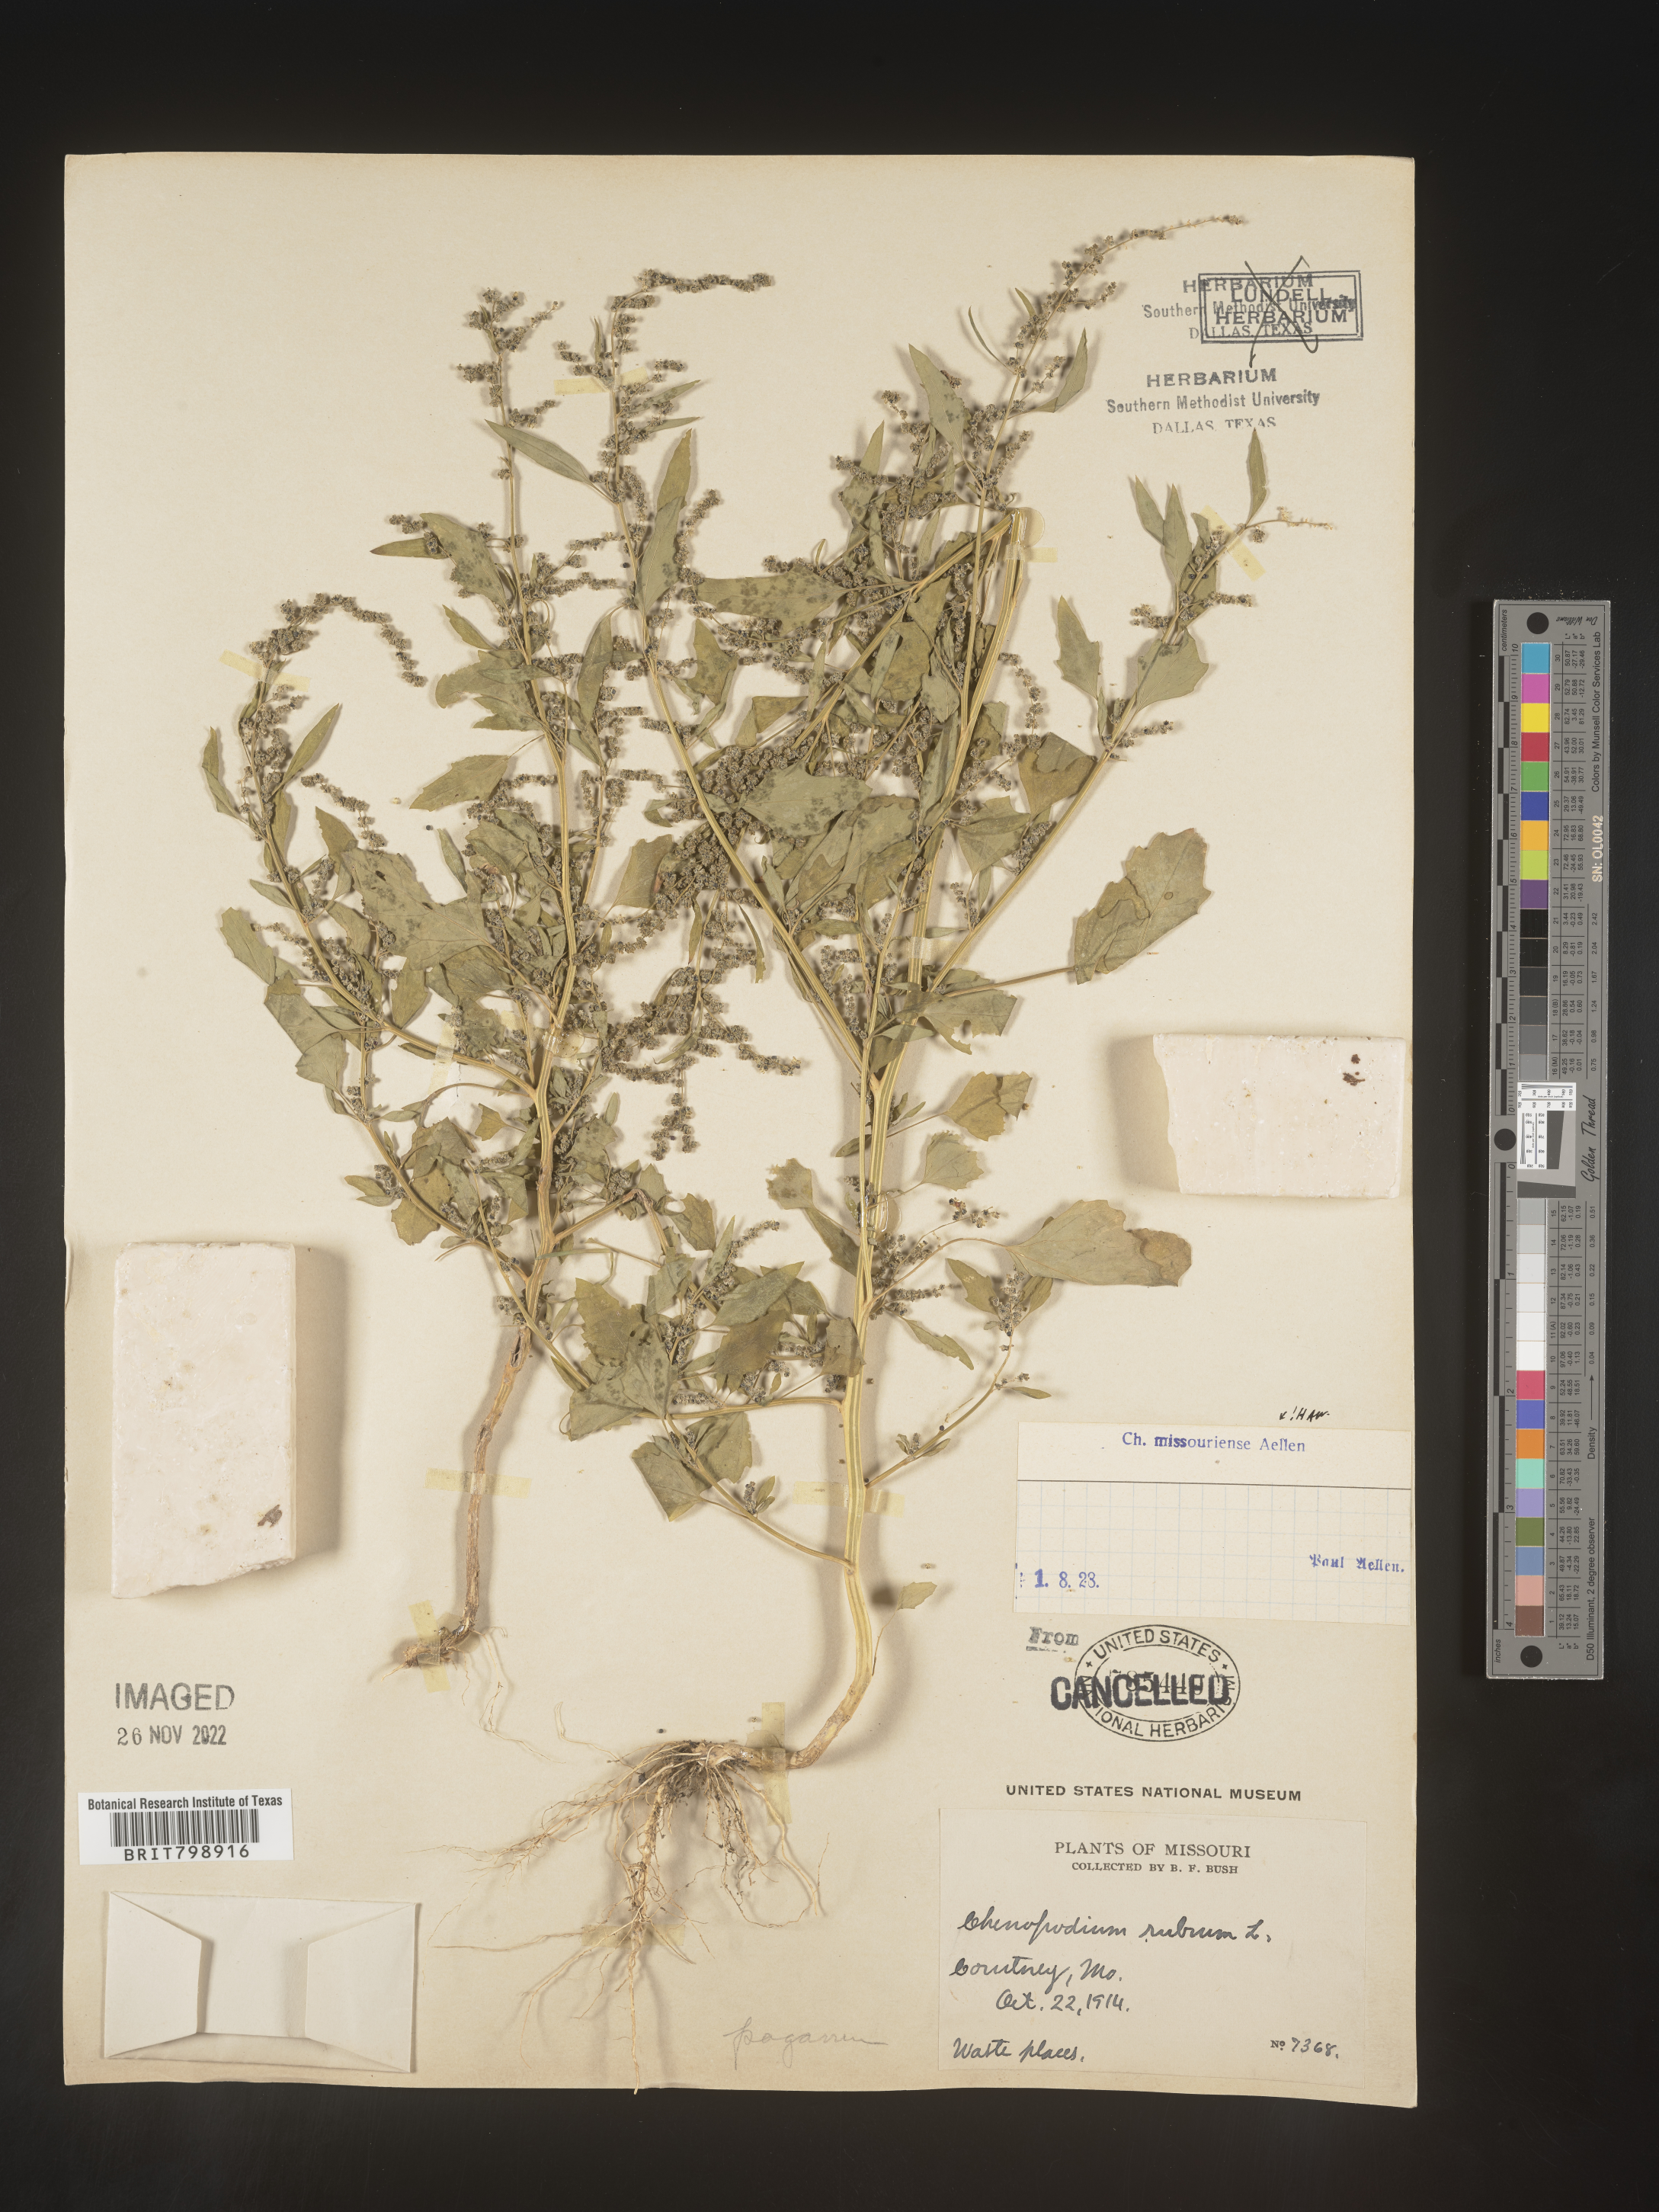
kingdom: Plantae
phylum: Tracheophyta
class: Magnoliopsida
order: Caryophyllales
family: Amaranthaceae
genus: Chenopodium
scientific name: Chenopodium album
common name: Fat-hen
